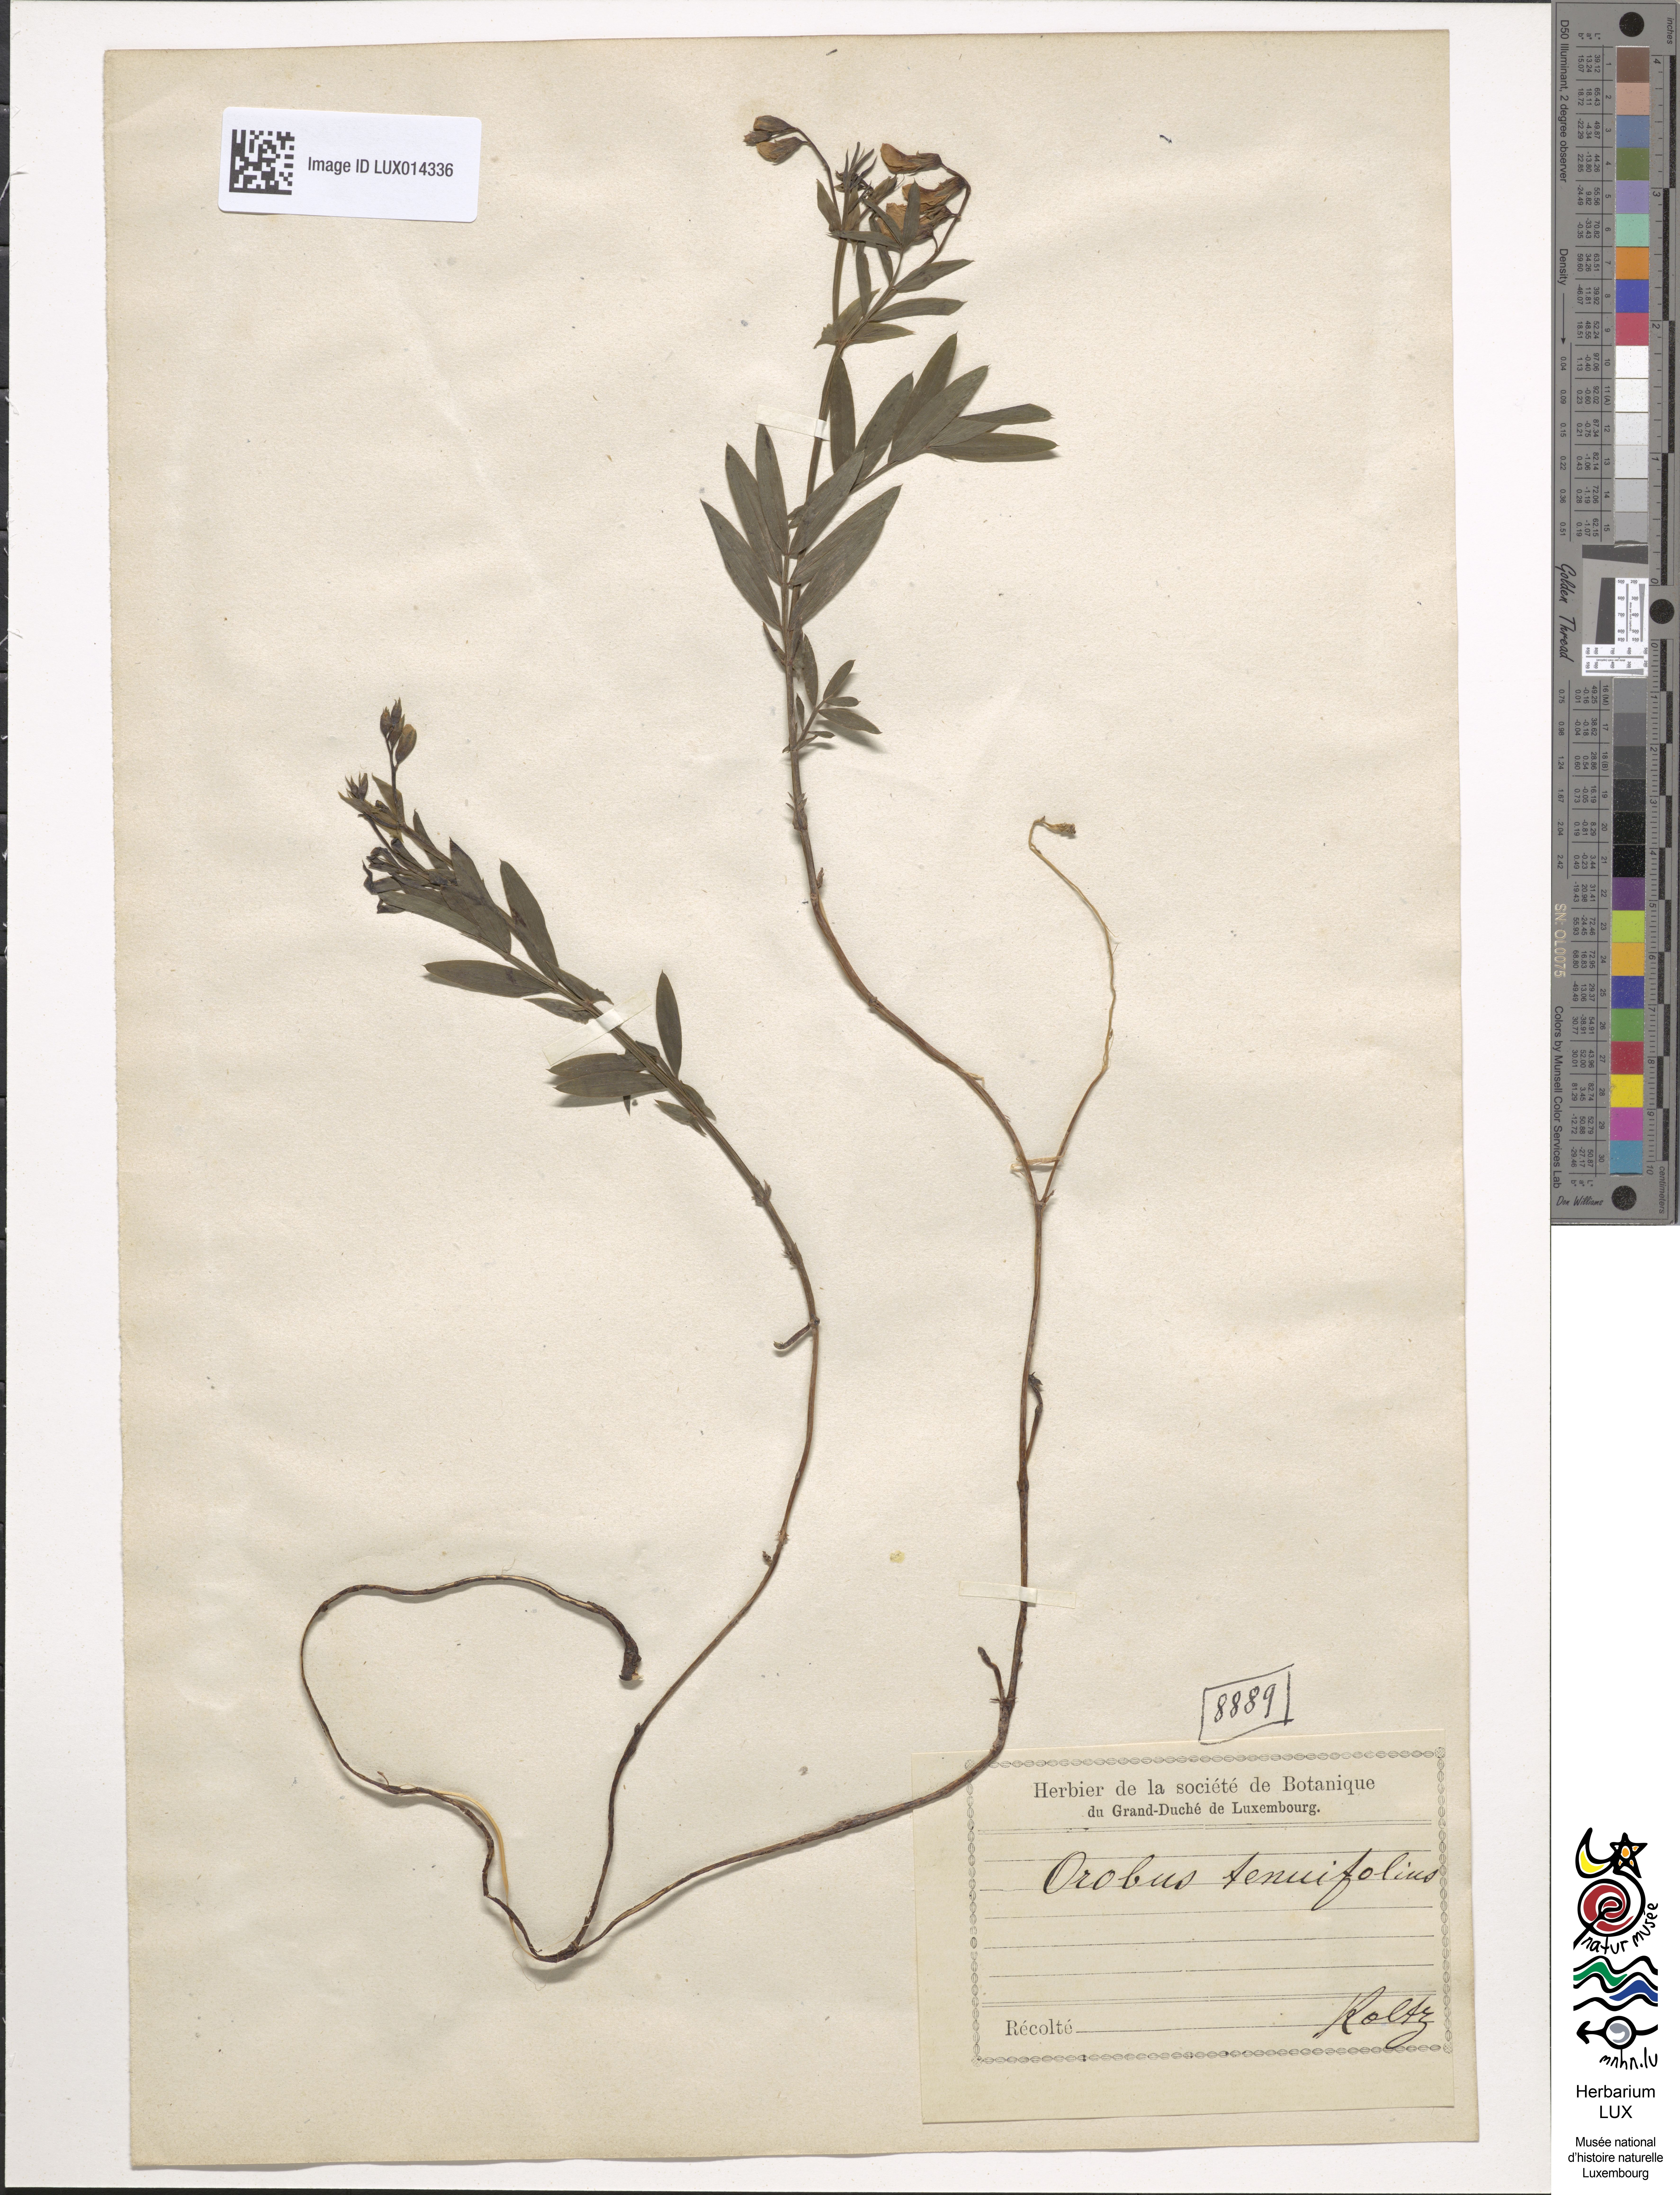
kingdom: Plantae
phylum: Tracheophyta
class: Magnoliopsida
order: Fabales
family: Fabaceae
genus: Lathyrus
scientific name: Lathyrus articulatus
